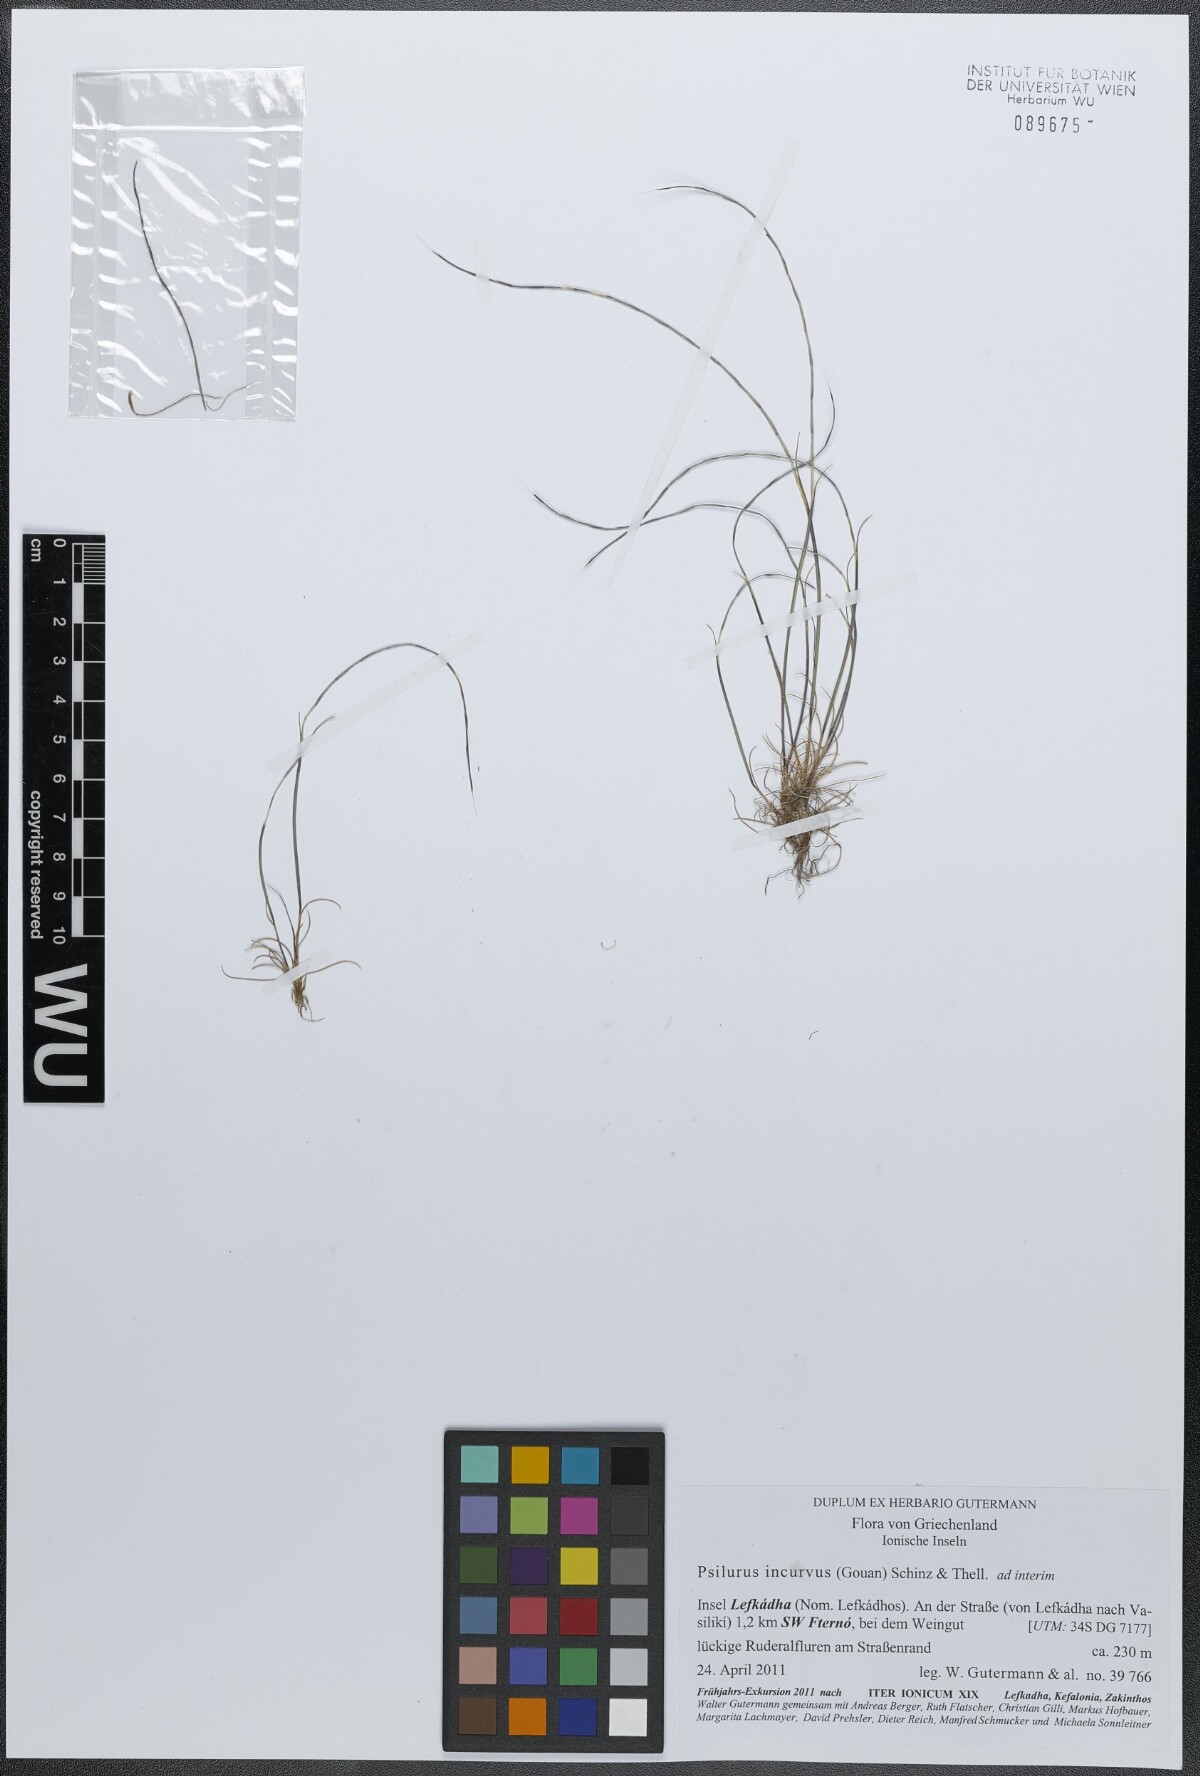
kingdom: Plantae
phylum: Tracheophyta
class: Liliopsida
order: Poales
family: Poaceae
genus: Festuca
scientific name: Festuca incurva
